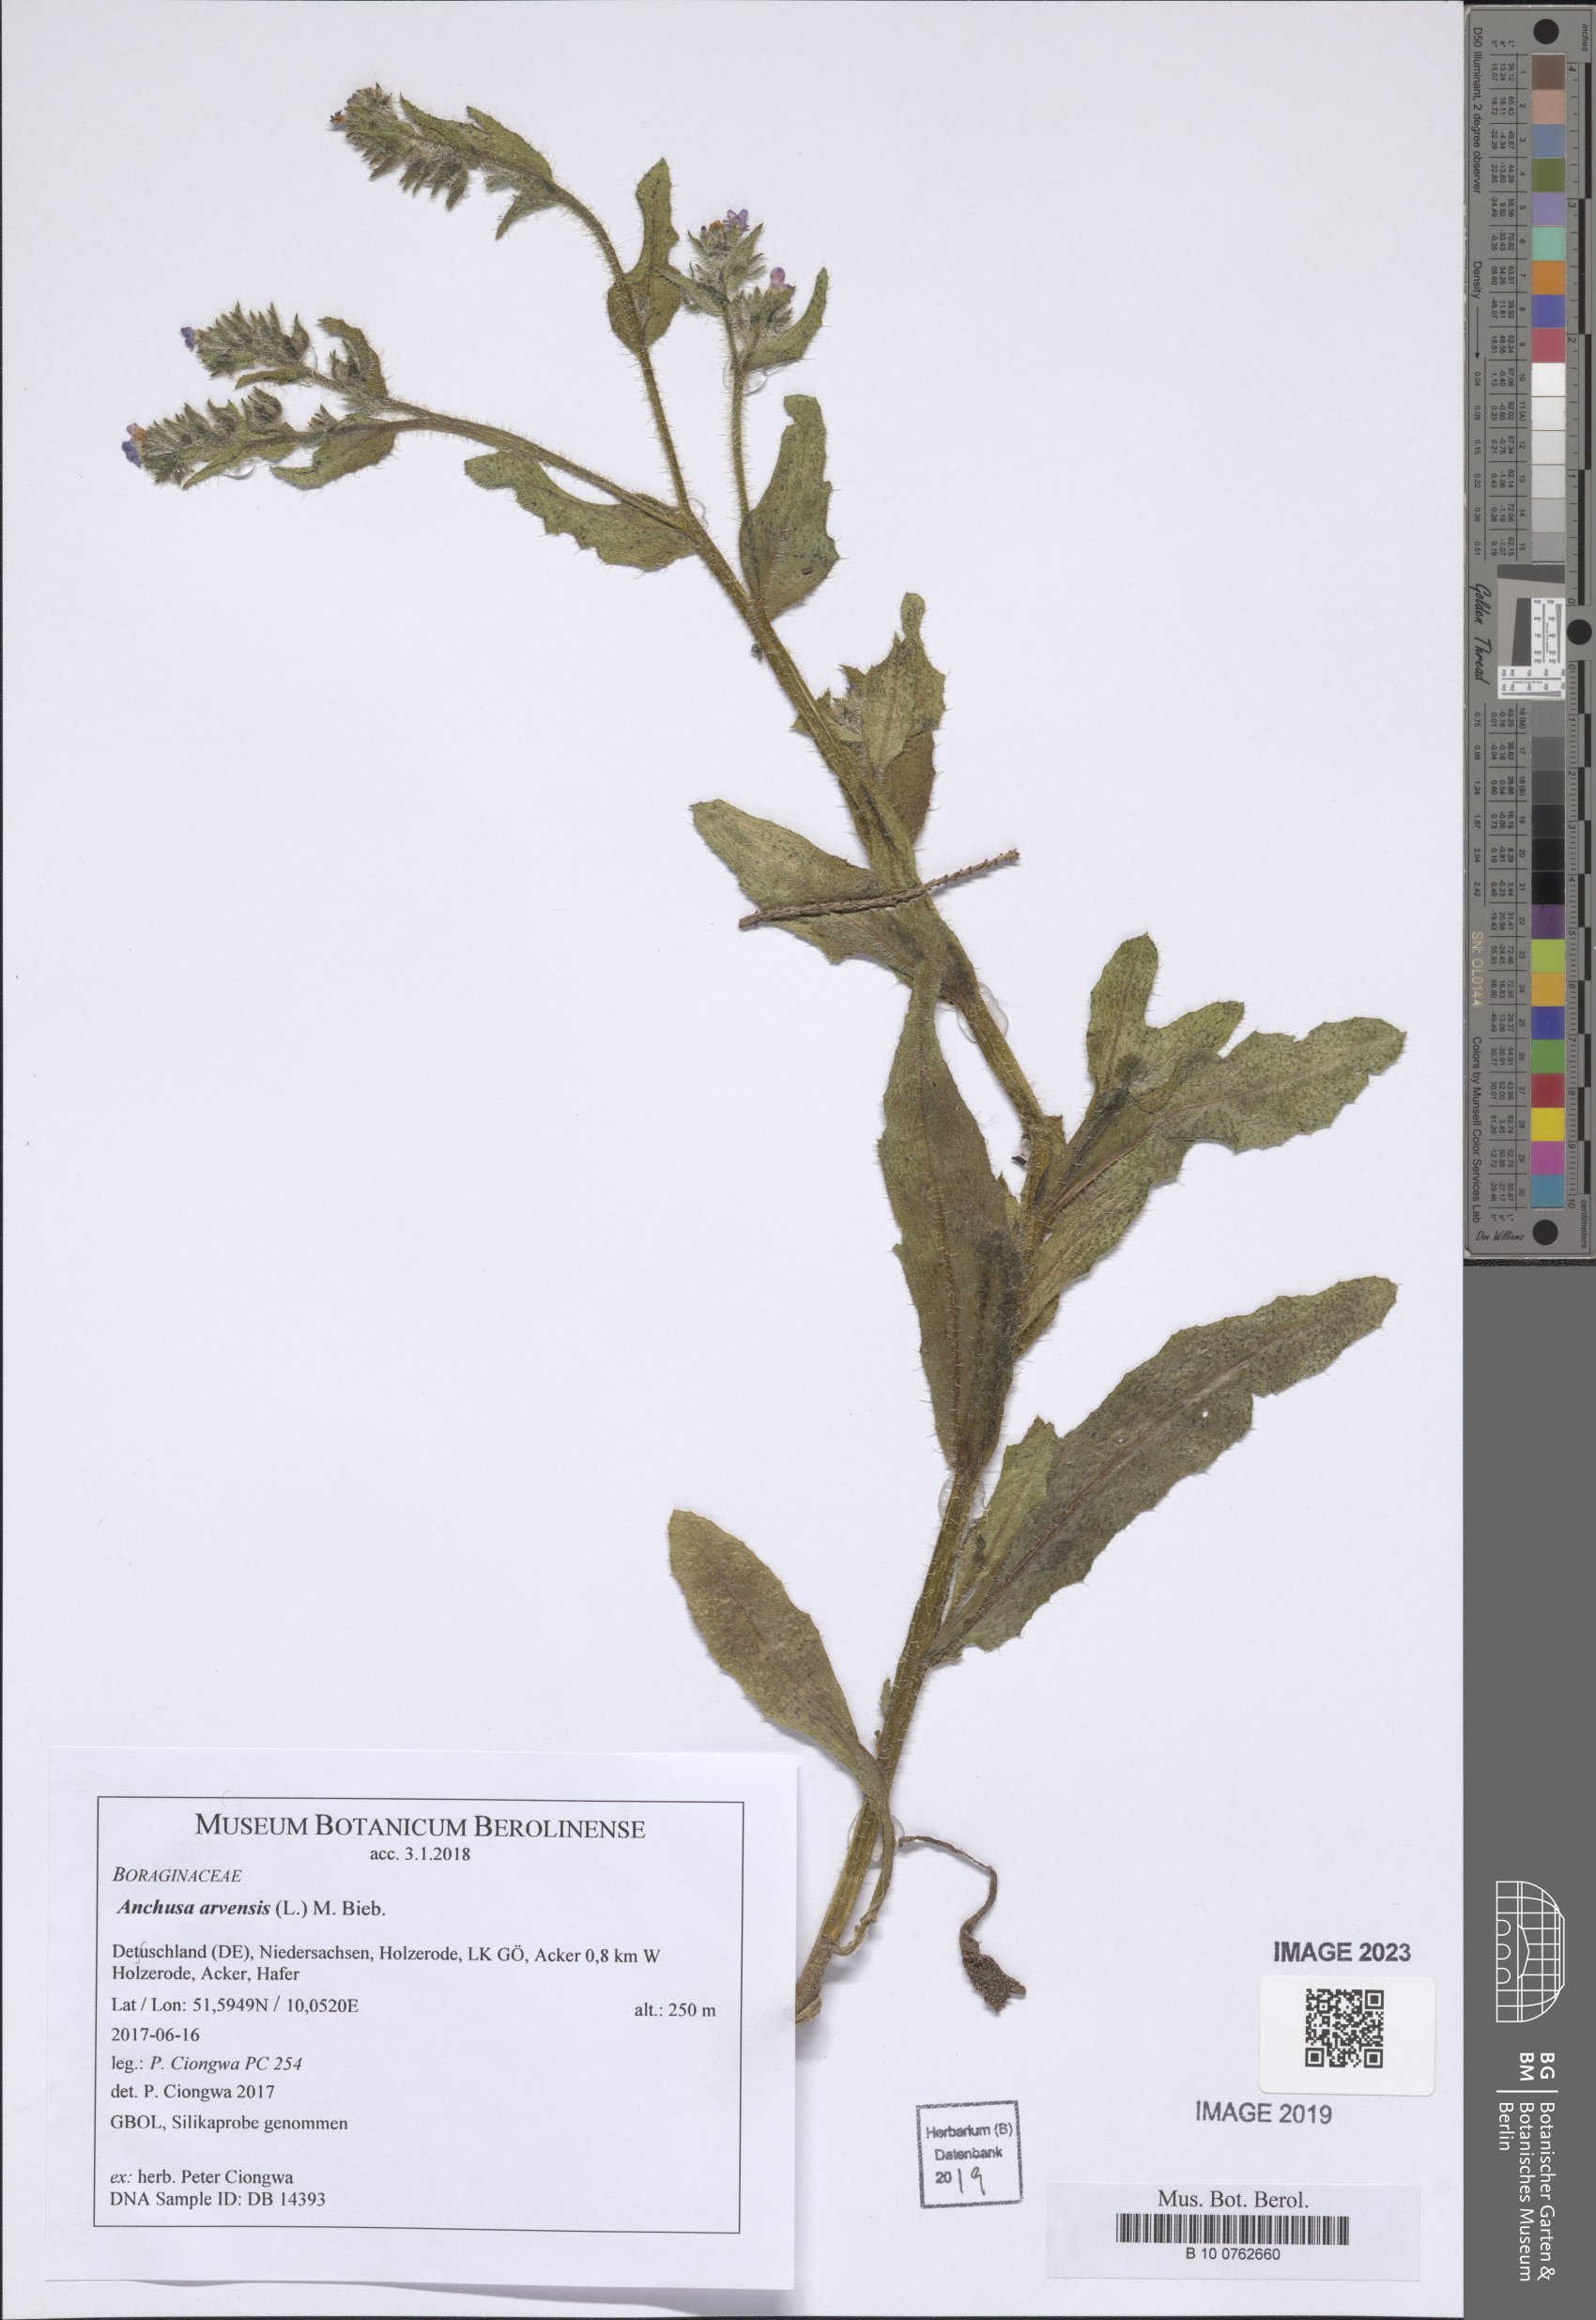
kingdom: Plantae
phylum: Tracheophyta
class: Magnoliopsida
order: Boraginales
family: Boraginaceae
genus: Lycopsis
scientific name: Lycopsis arvensis
